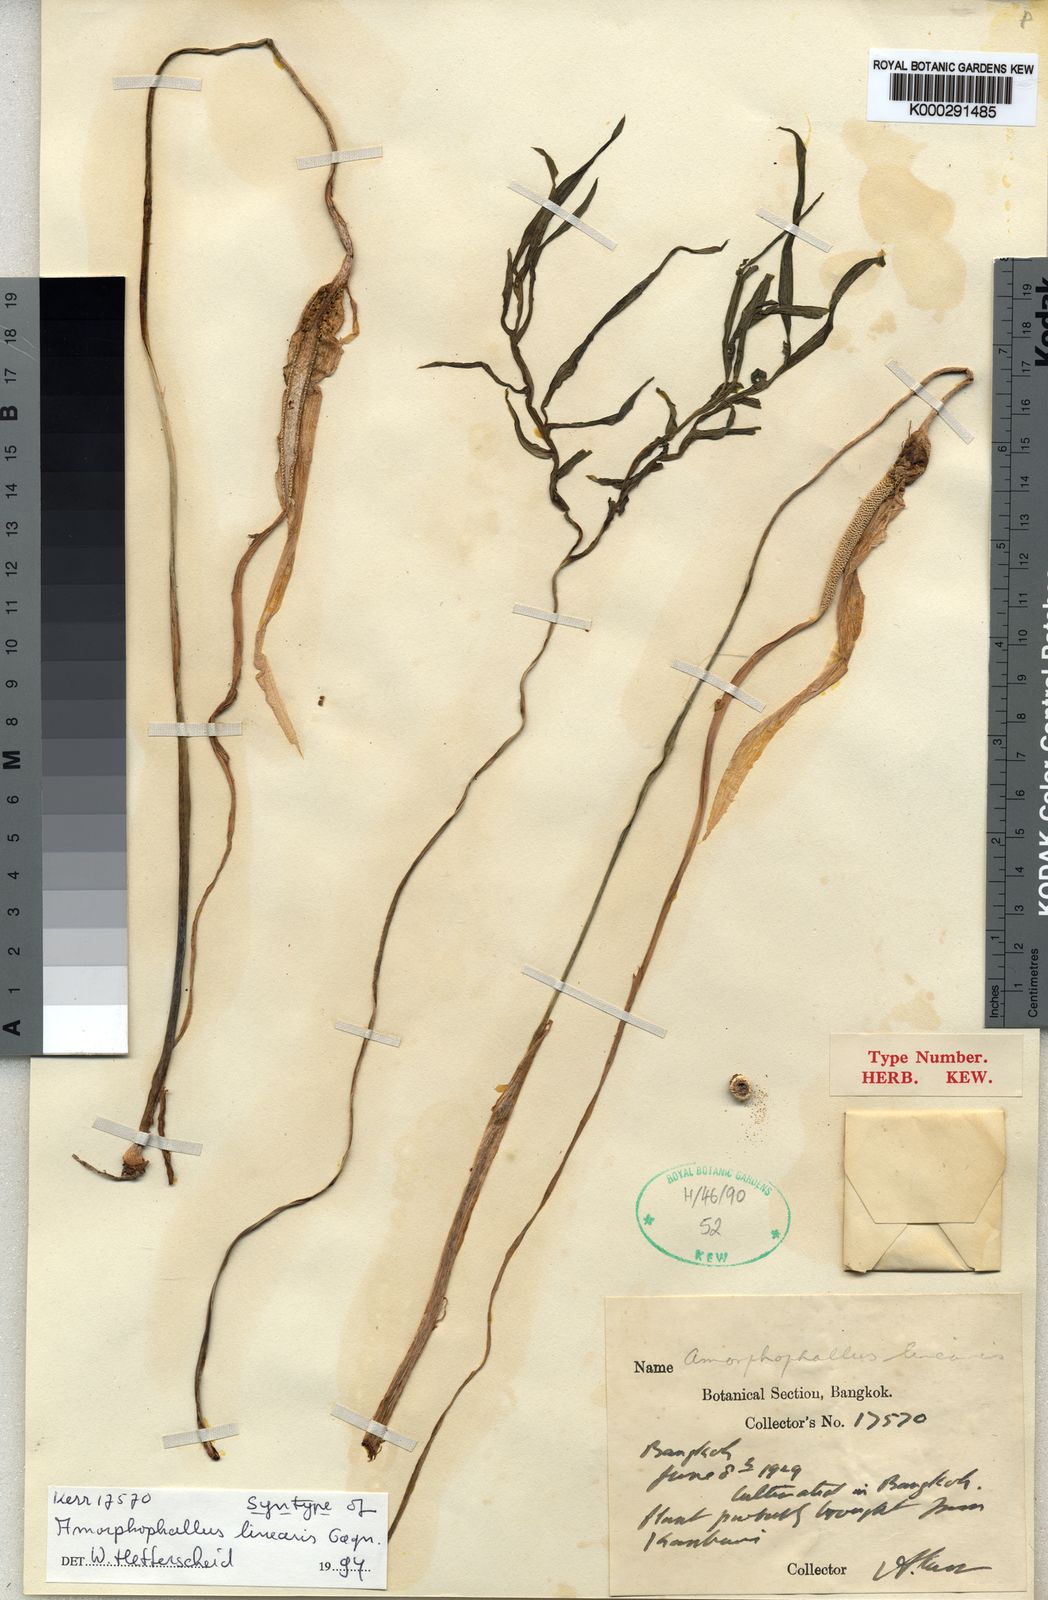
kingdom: Plantae
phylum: Tracheophyta
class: Liliopsida
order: Alismatales
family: Araceae
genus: Amorphophallus
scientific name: Amorphophallus linearis
